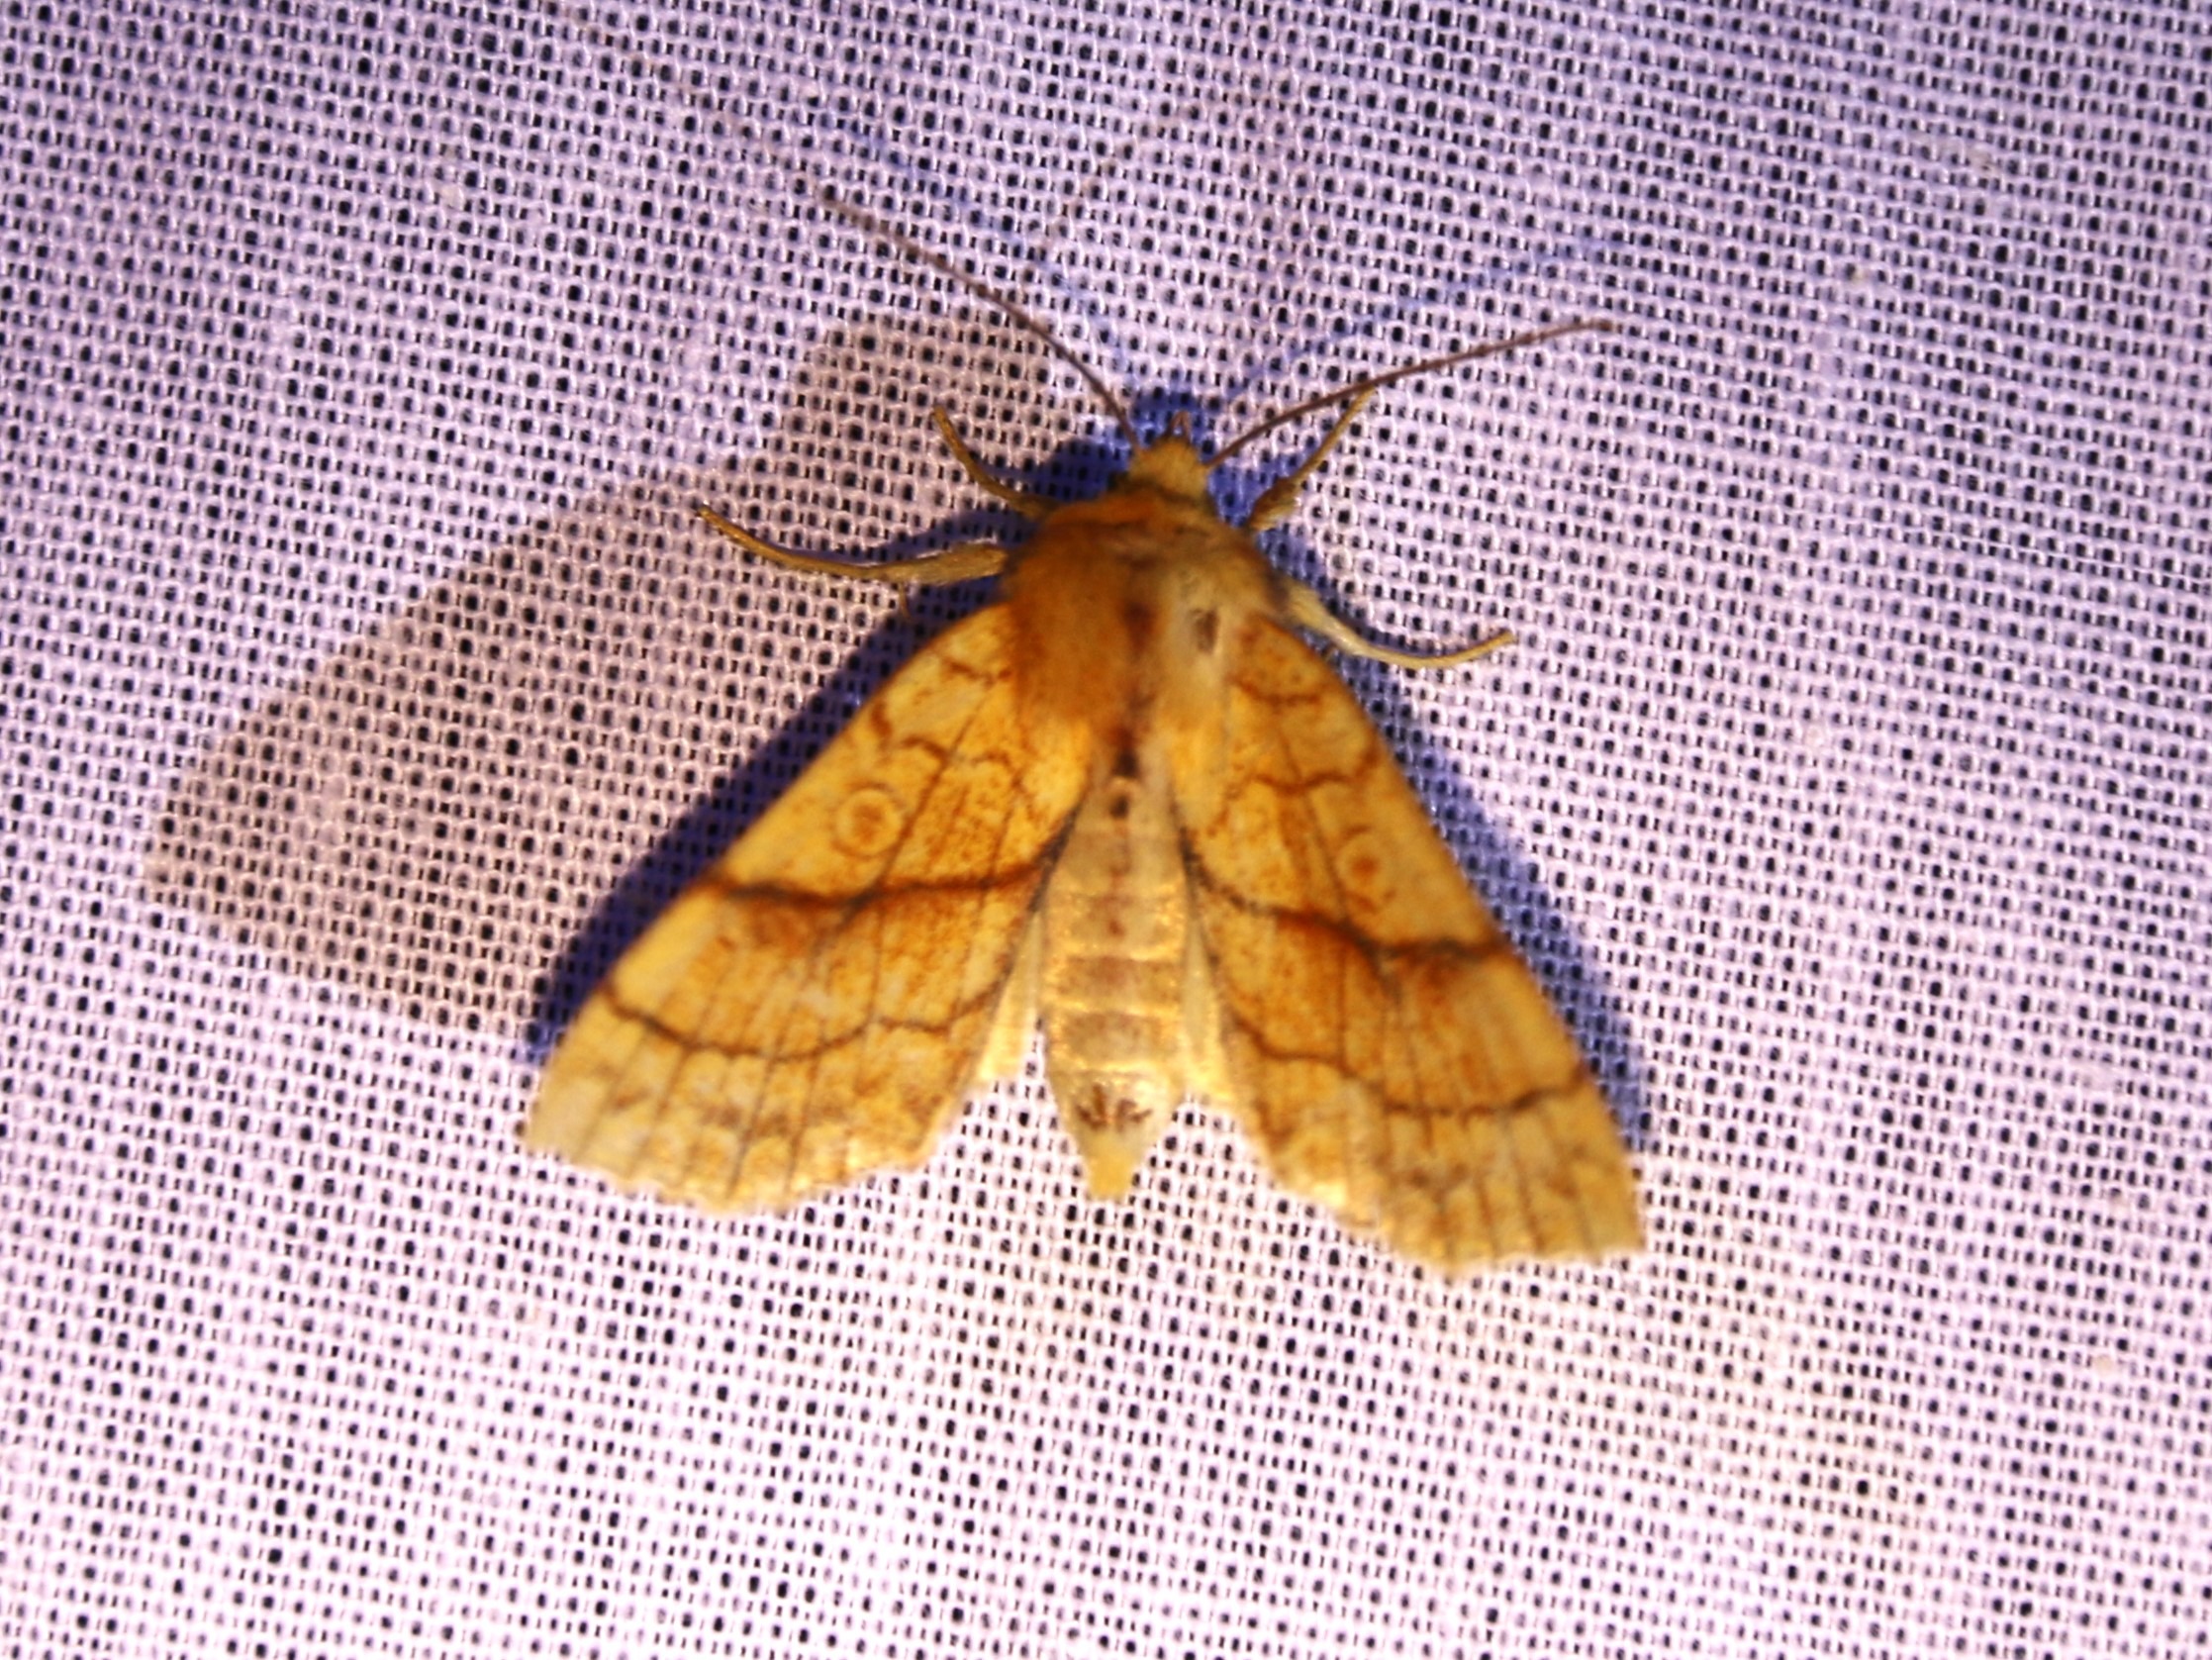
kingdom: Animalia
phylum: Arthropoda
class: Insecta
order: Lepidoptera
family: Noctuidae
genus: Tiliacea
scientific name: Tiliacea citrago
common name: Linde-septemberugle
